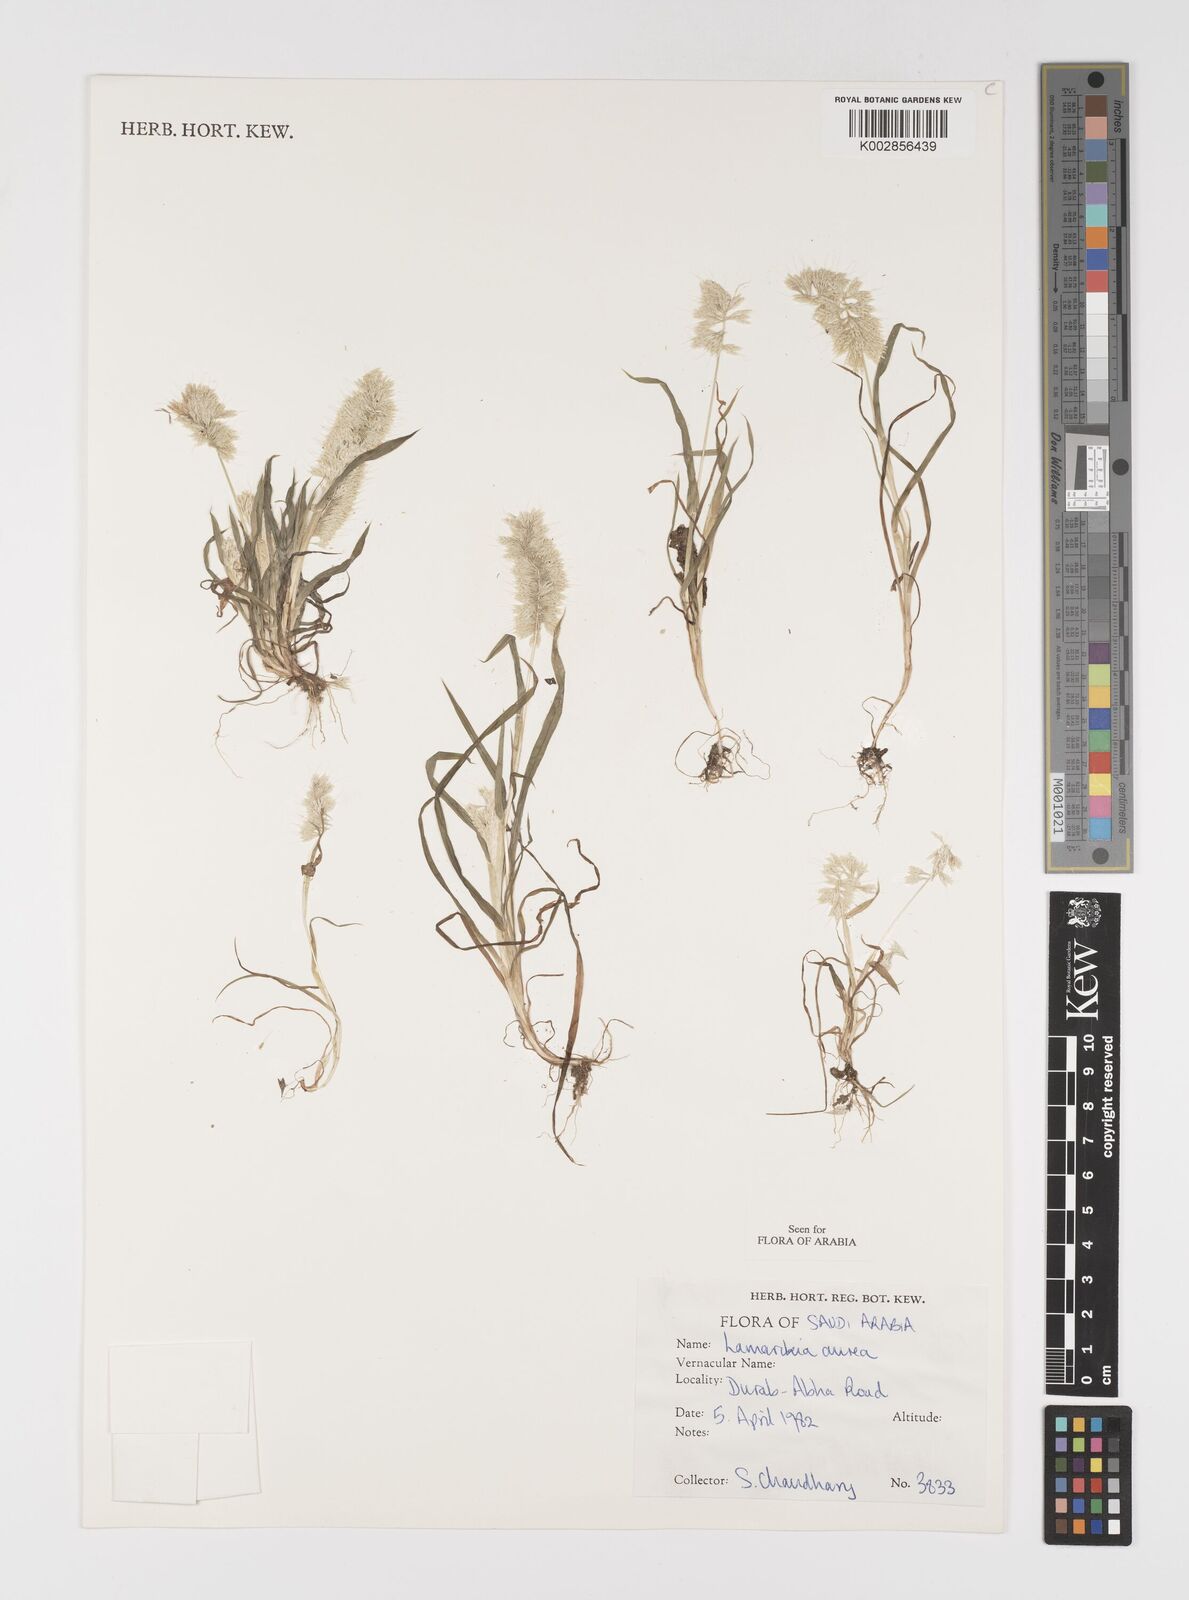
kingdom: Plantae
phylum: Tracheophyta
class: Liliopsida
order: Poales
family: Poaceae
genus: Lamarckia
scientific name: Lamarckia aurea
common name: Golden dog's-tail
